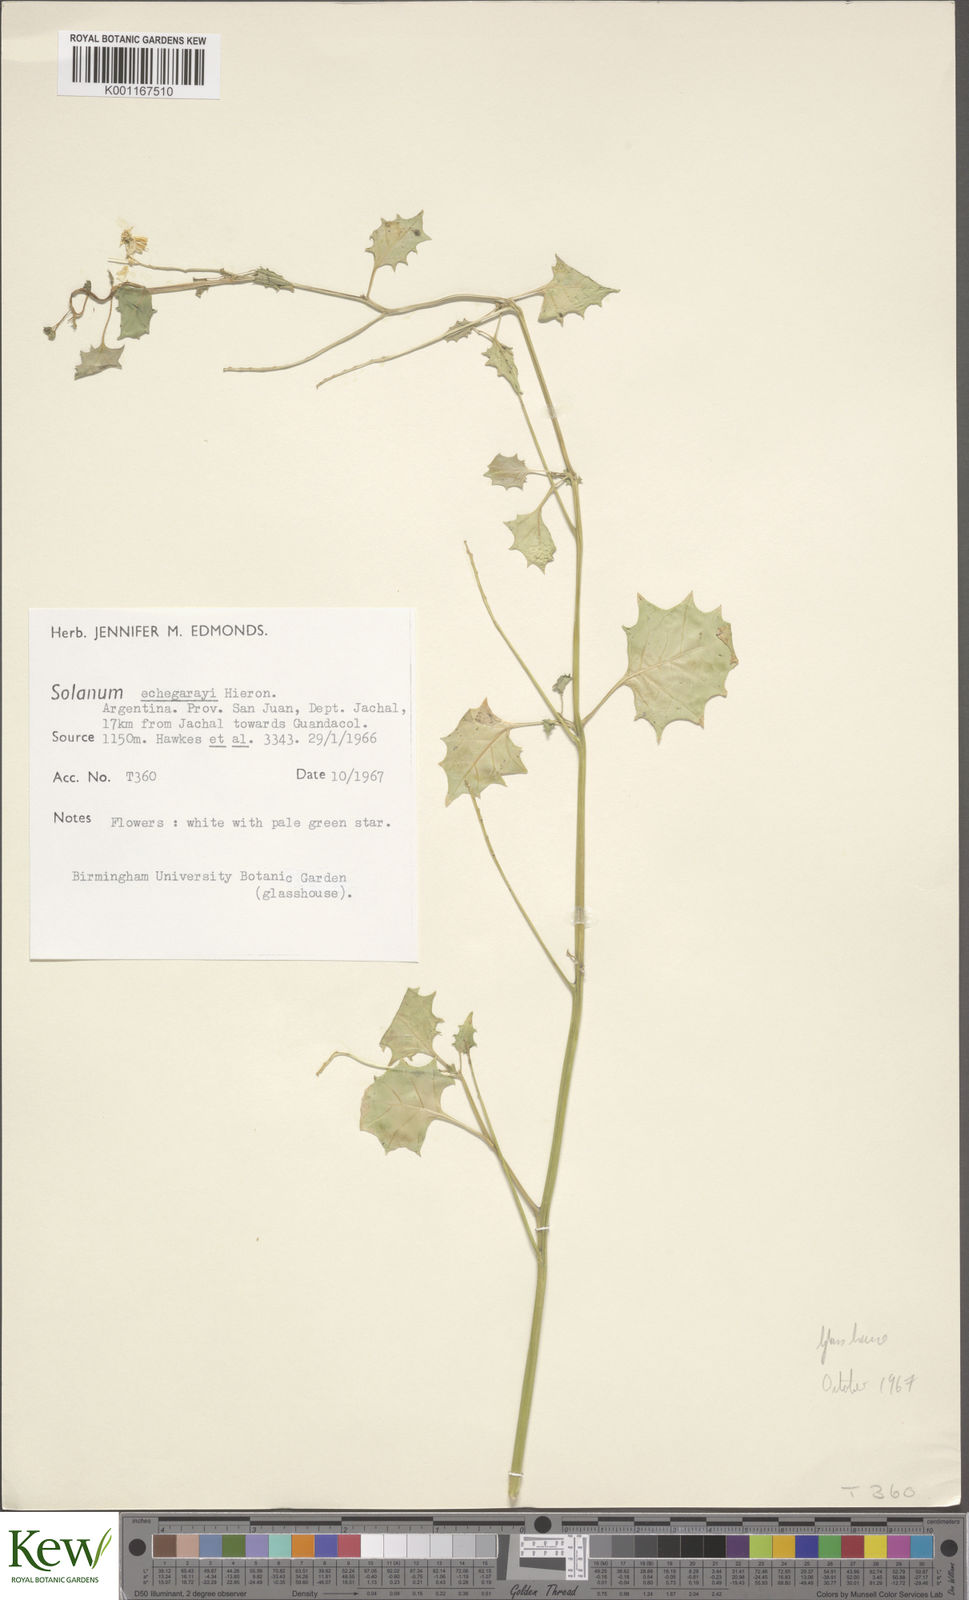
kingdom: Plantae
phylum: Tracheophyta
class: Magnoliopsida
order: Solanales
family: Solanaceae
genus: Solanum
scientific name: Solanum echegarayi
